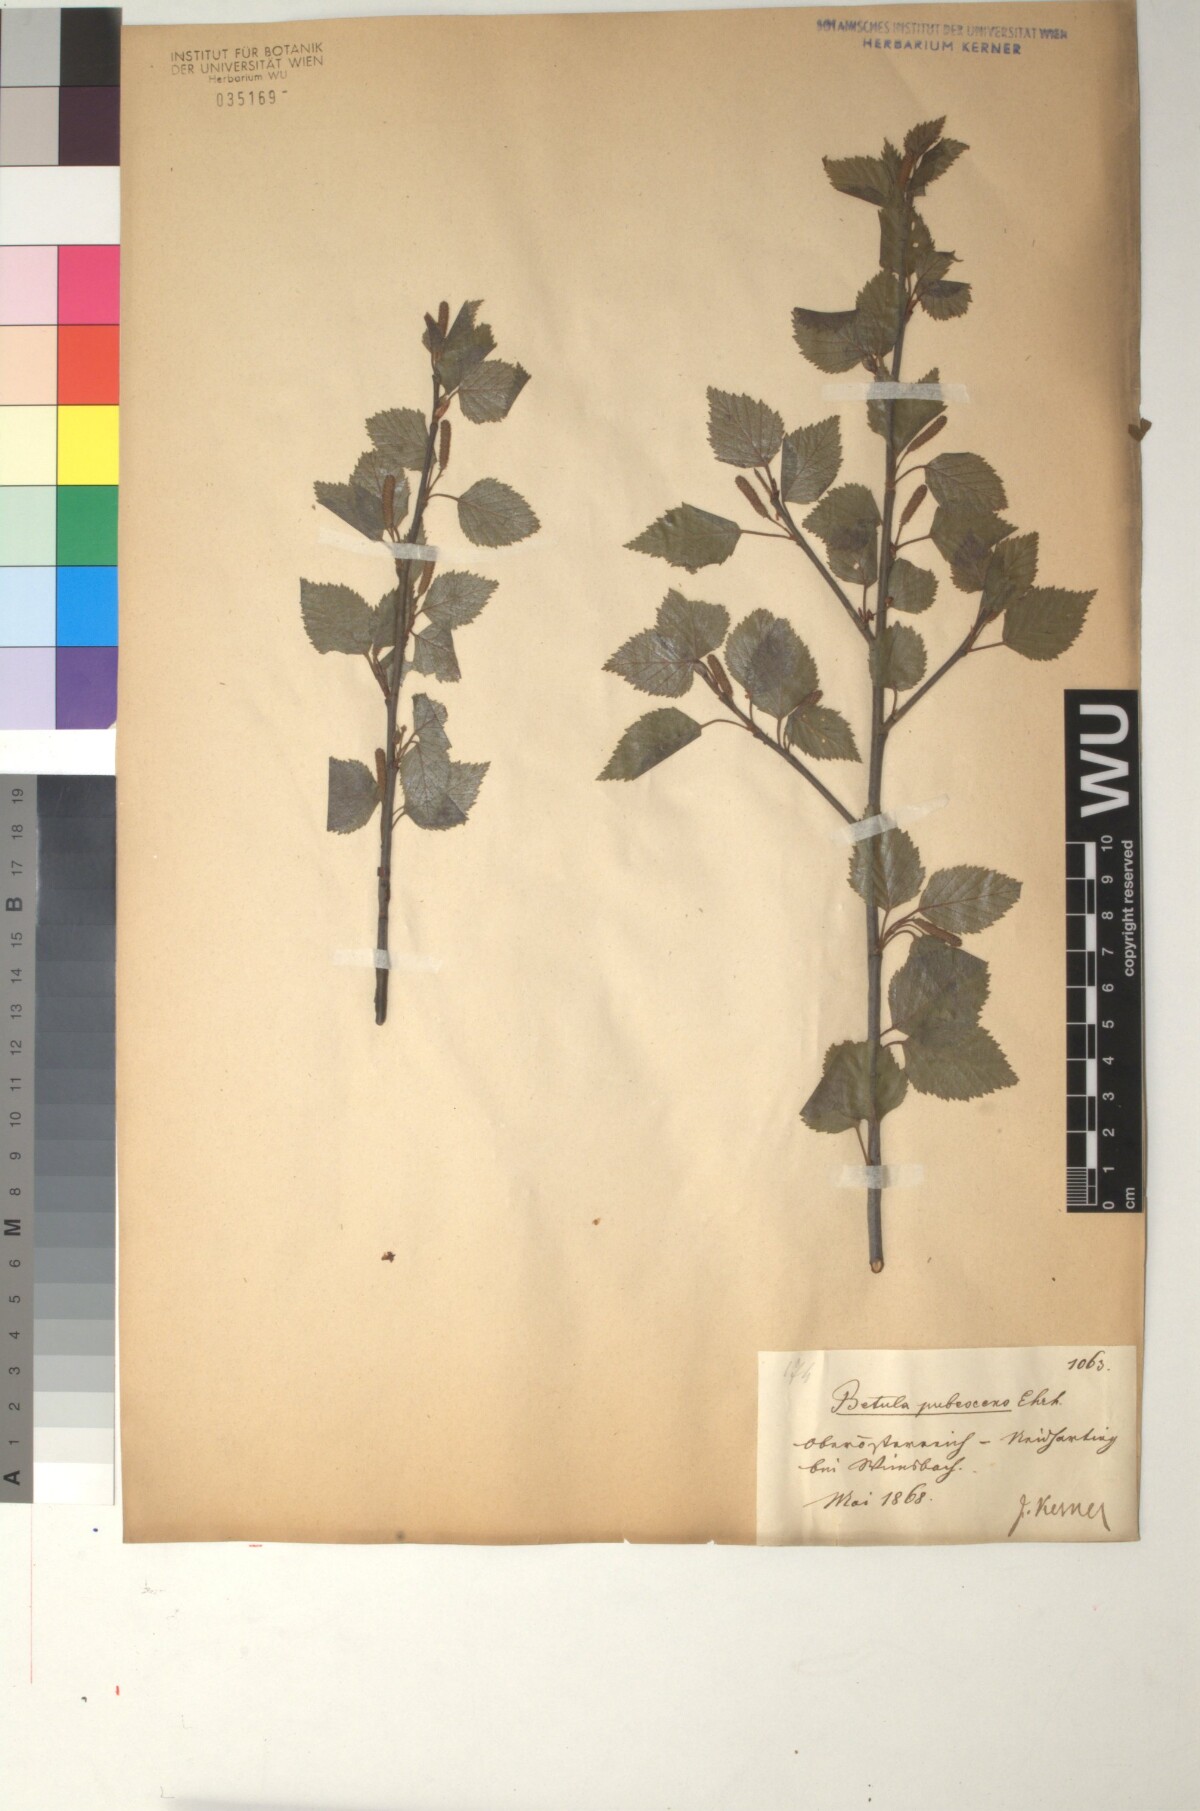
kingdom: Plantae
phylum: Tracheophyta
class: Magnoliopsida
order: Fagales
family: Betulaceae
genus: Betula
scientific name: Betula pubescens
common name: Downy birch
